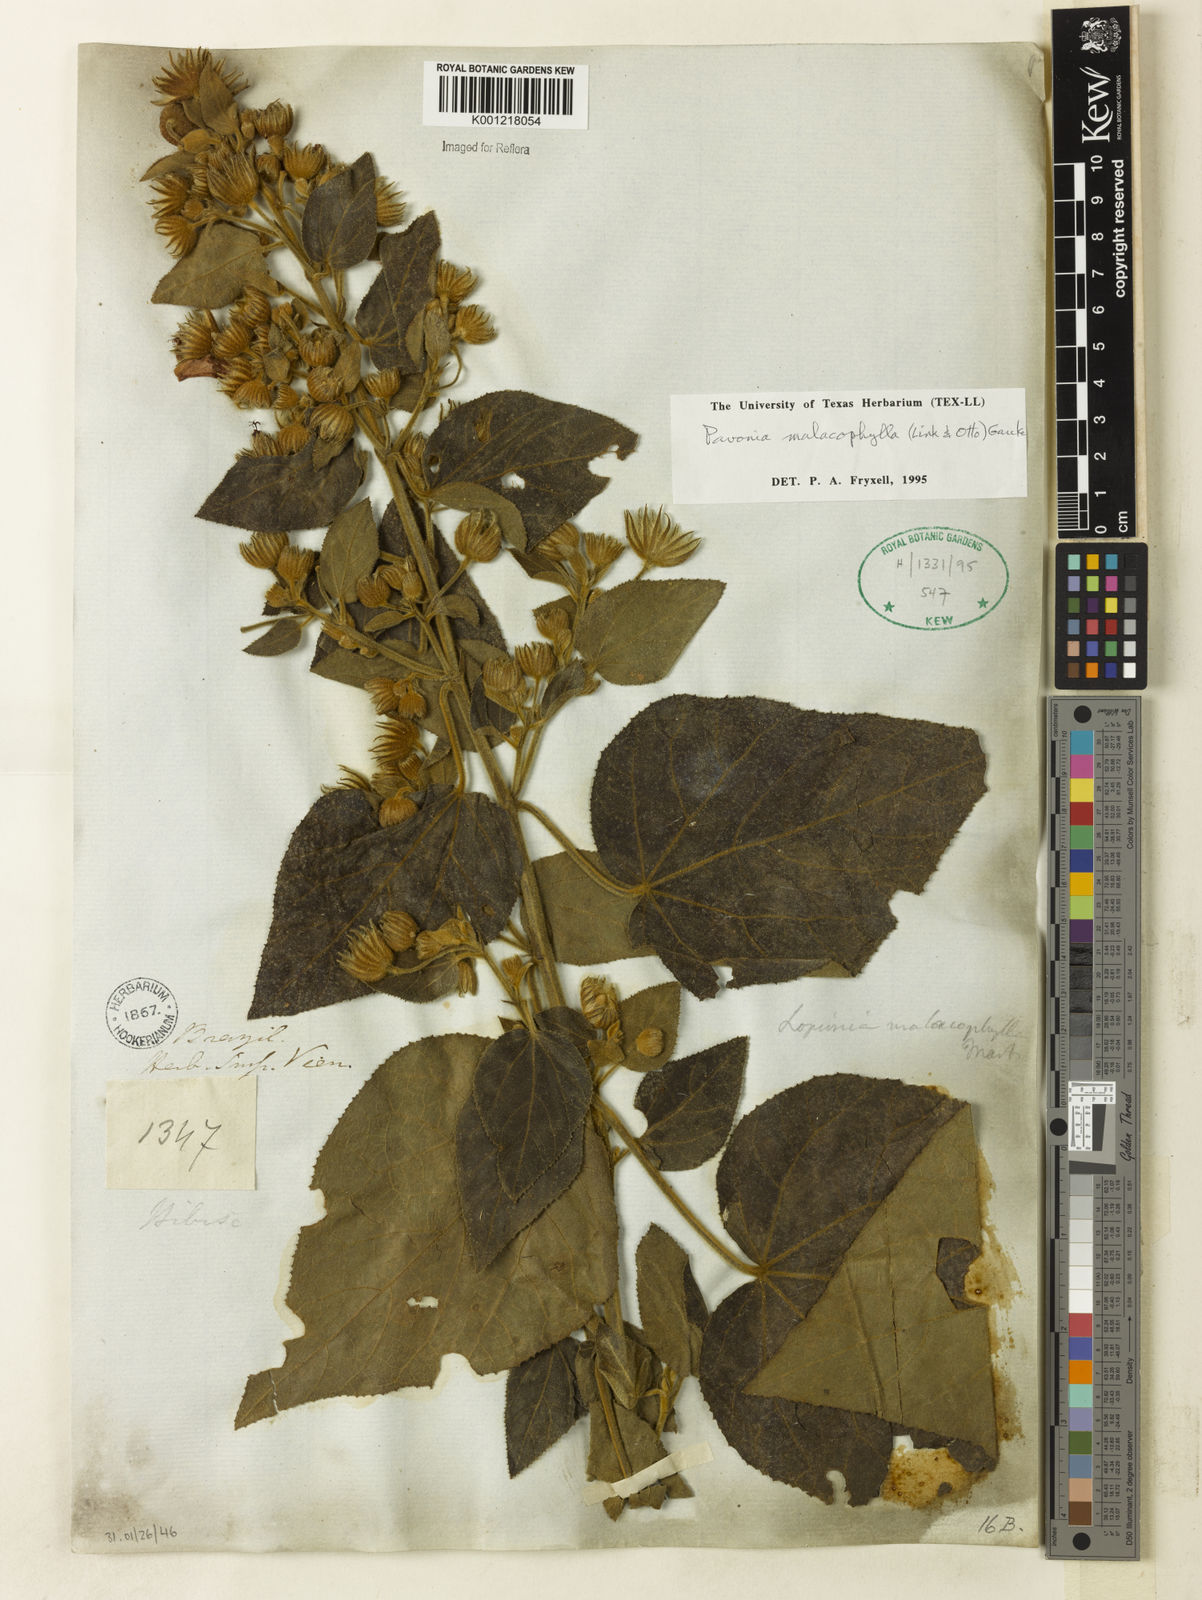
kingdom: Plantae
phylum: Tracheophyta
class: Magnoliopsida
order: Malvales
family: Malvaceae
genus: Pavonia
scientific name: Pavonia malacophylla
